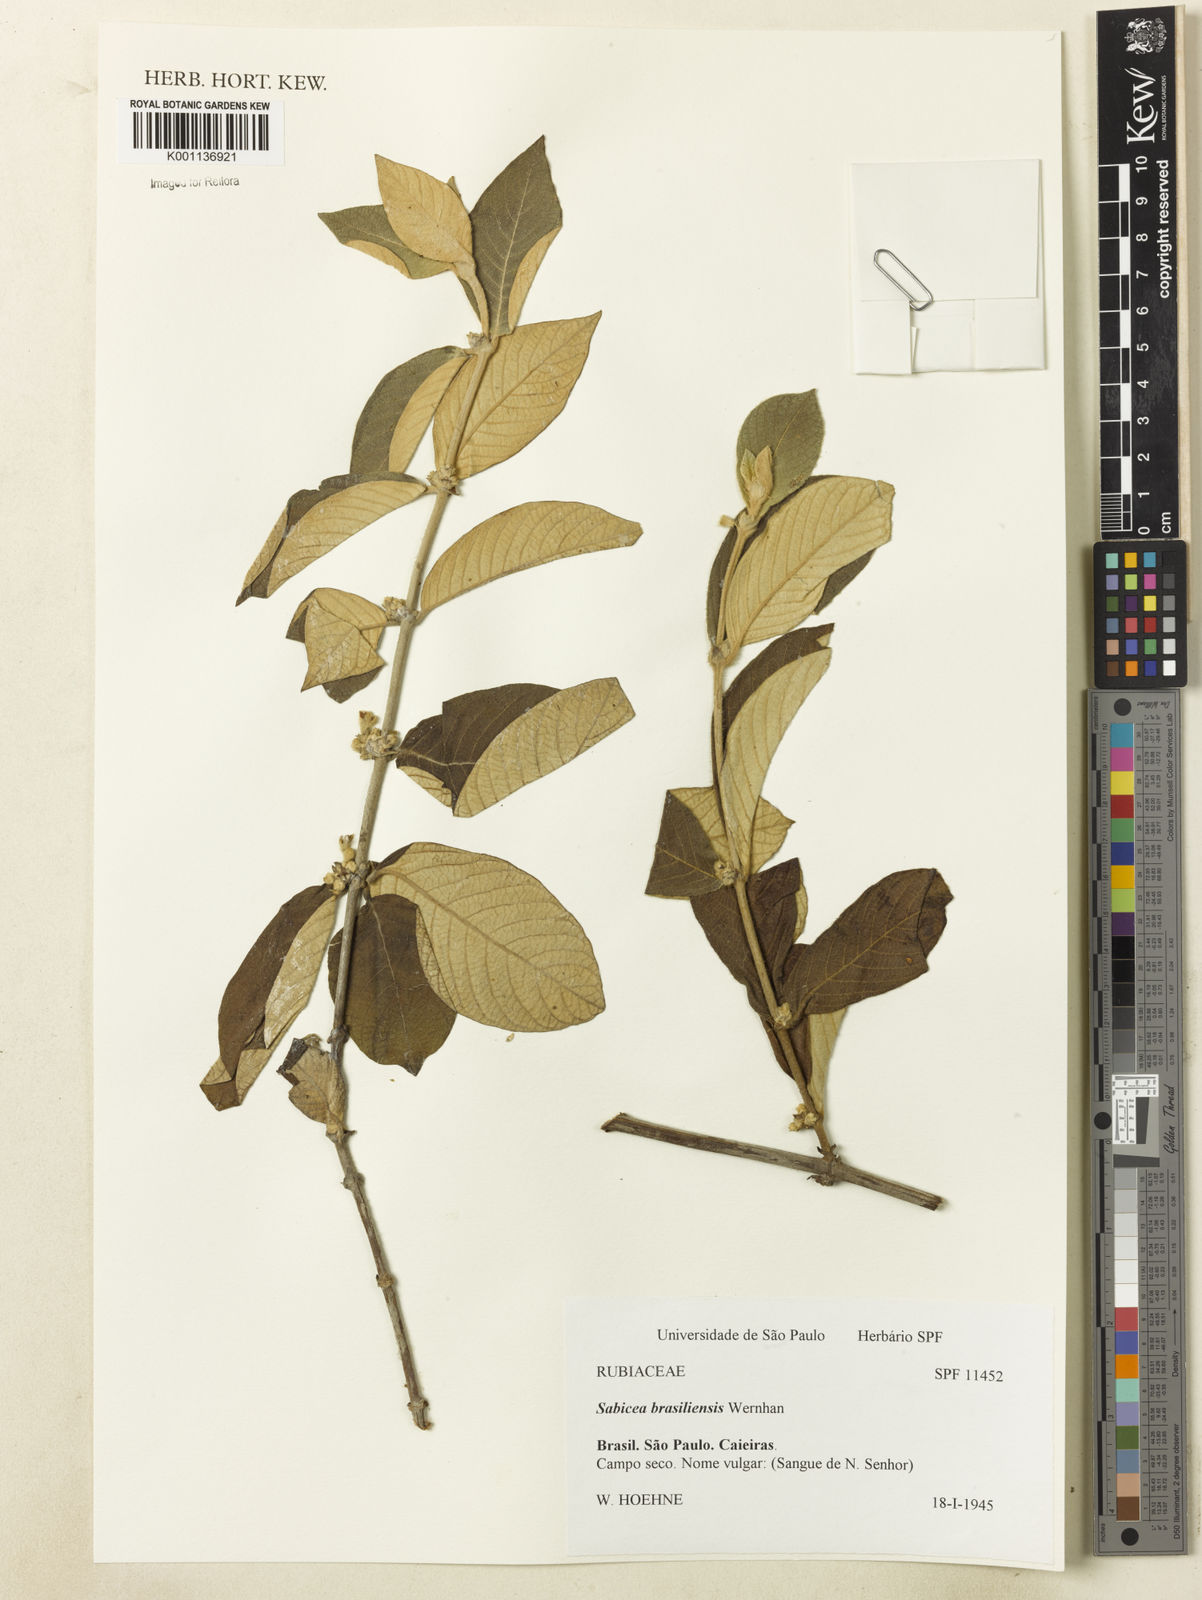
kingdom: Plantae
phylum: Tracheophyta
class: Magnoliopsida
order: Gentianales
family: Rubiaceae
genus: Sabicea
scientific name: Sabicea brasiliensis
